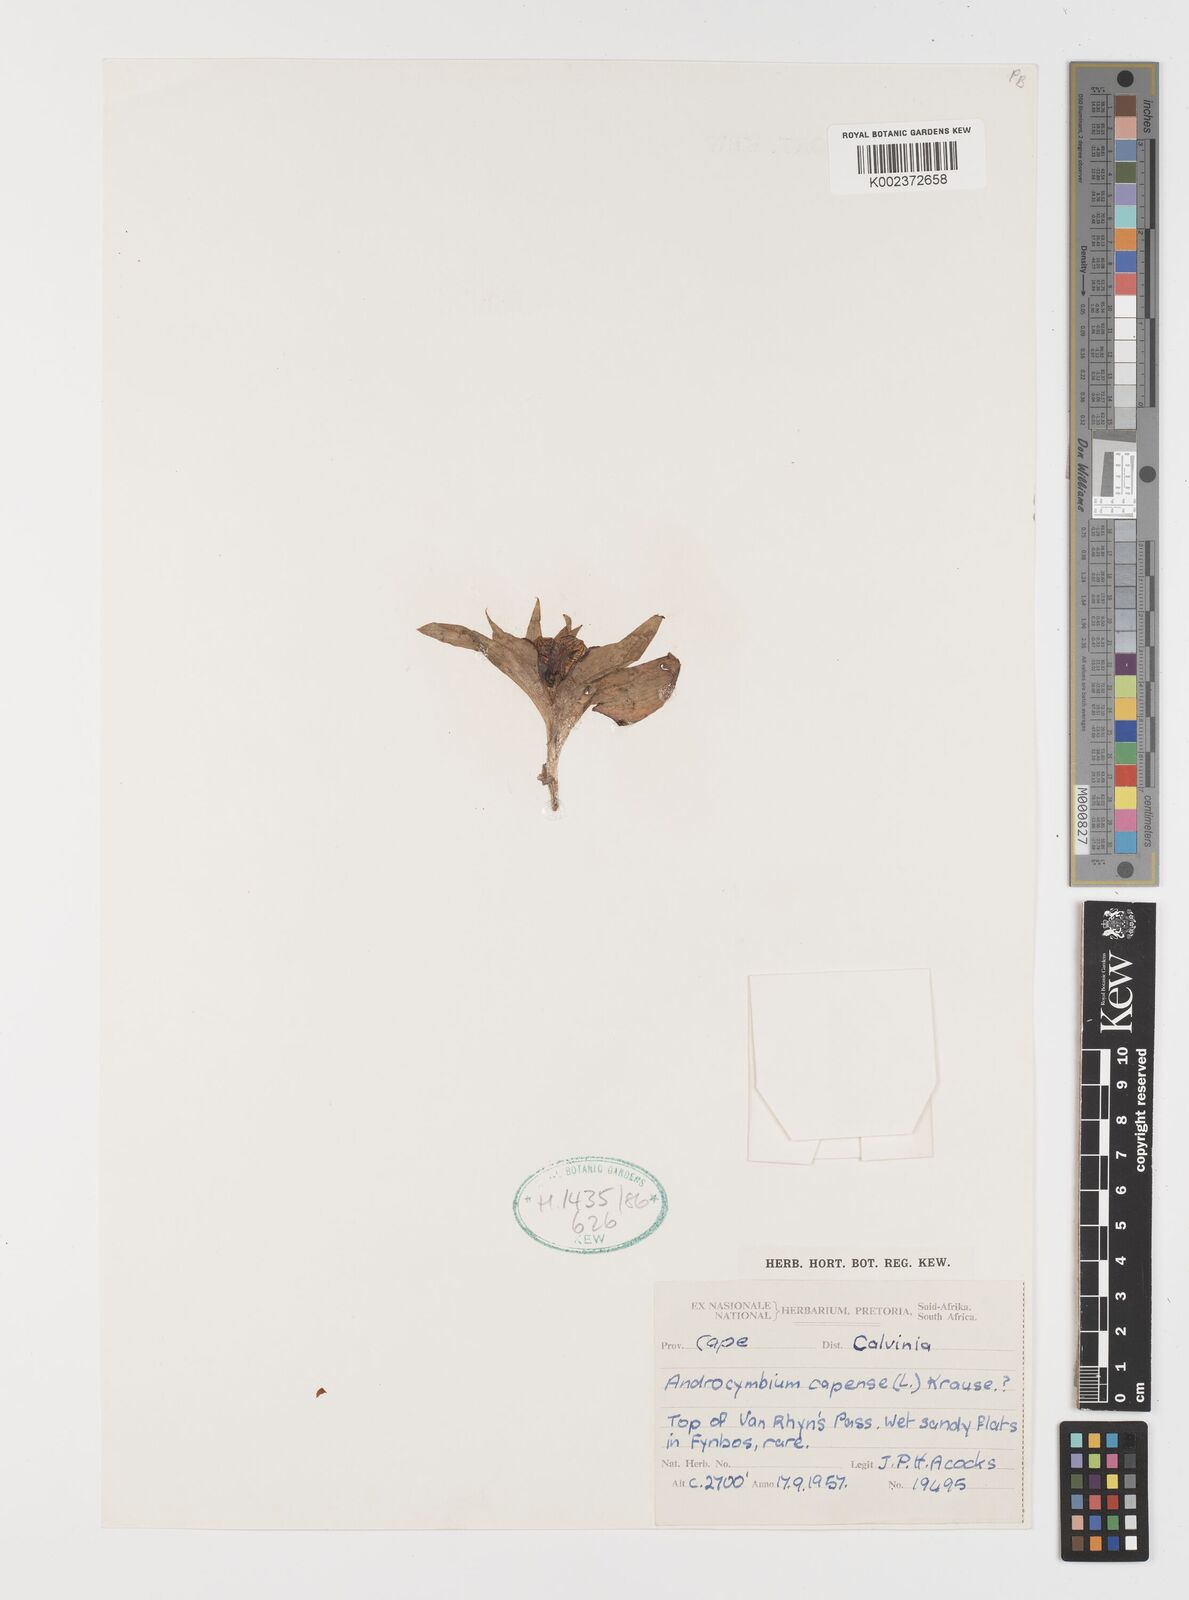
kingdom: Plantae
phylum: Tracheophyta
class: Liliopsida
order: Liliales
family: Colchicaceae
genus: Colchicum
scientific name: Colchicum capense
